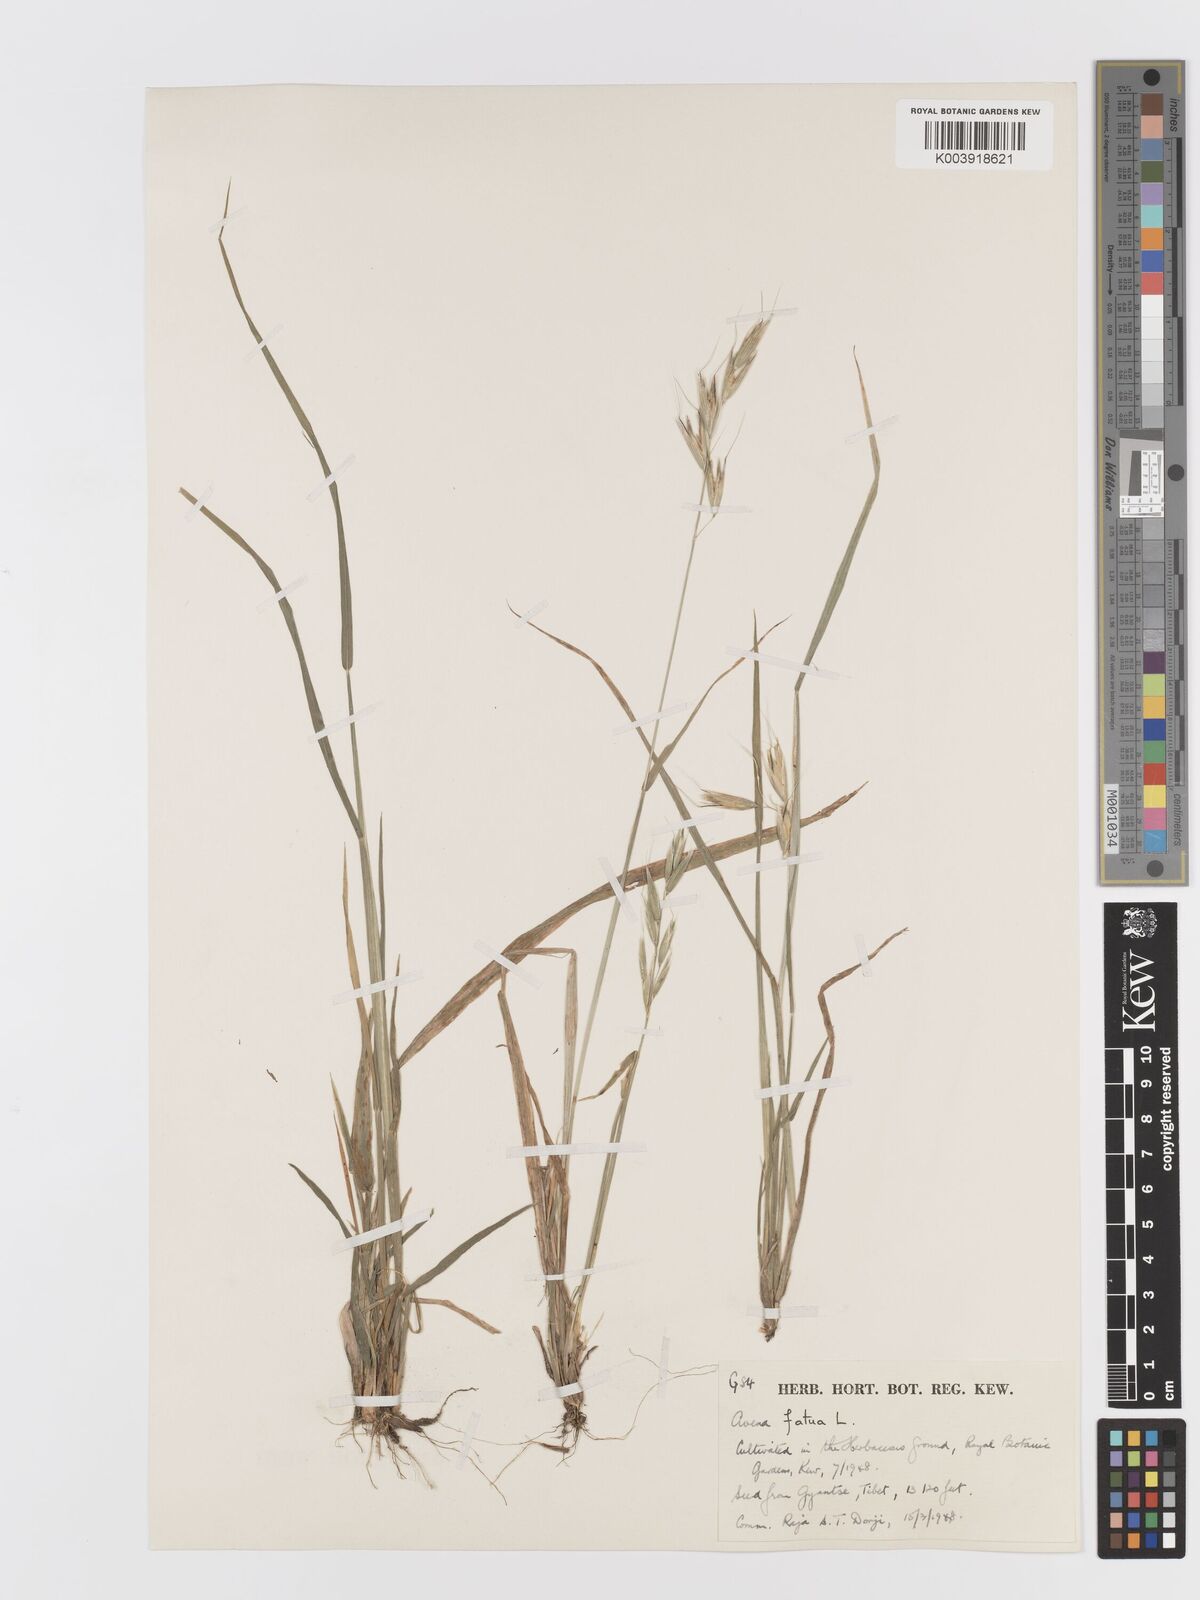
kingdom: Plantae
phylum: Tracheophyta
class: Liliopsida
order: Poales
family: Poaceae
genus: Avena
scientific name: Avena fatua
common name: Wild oat
